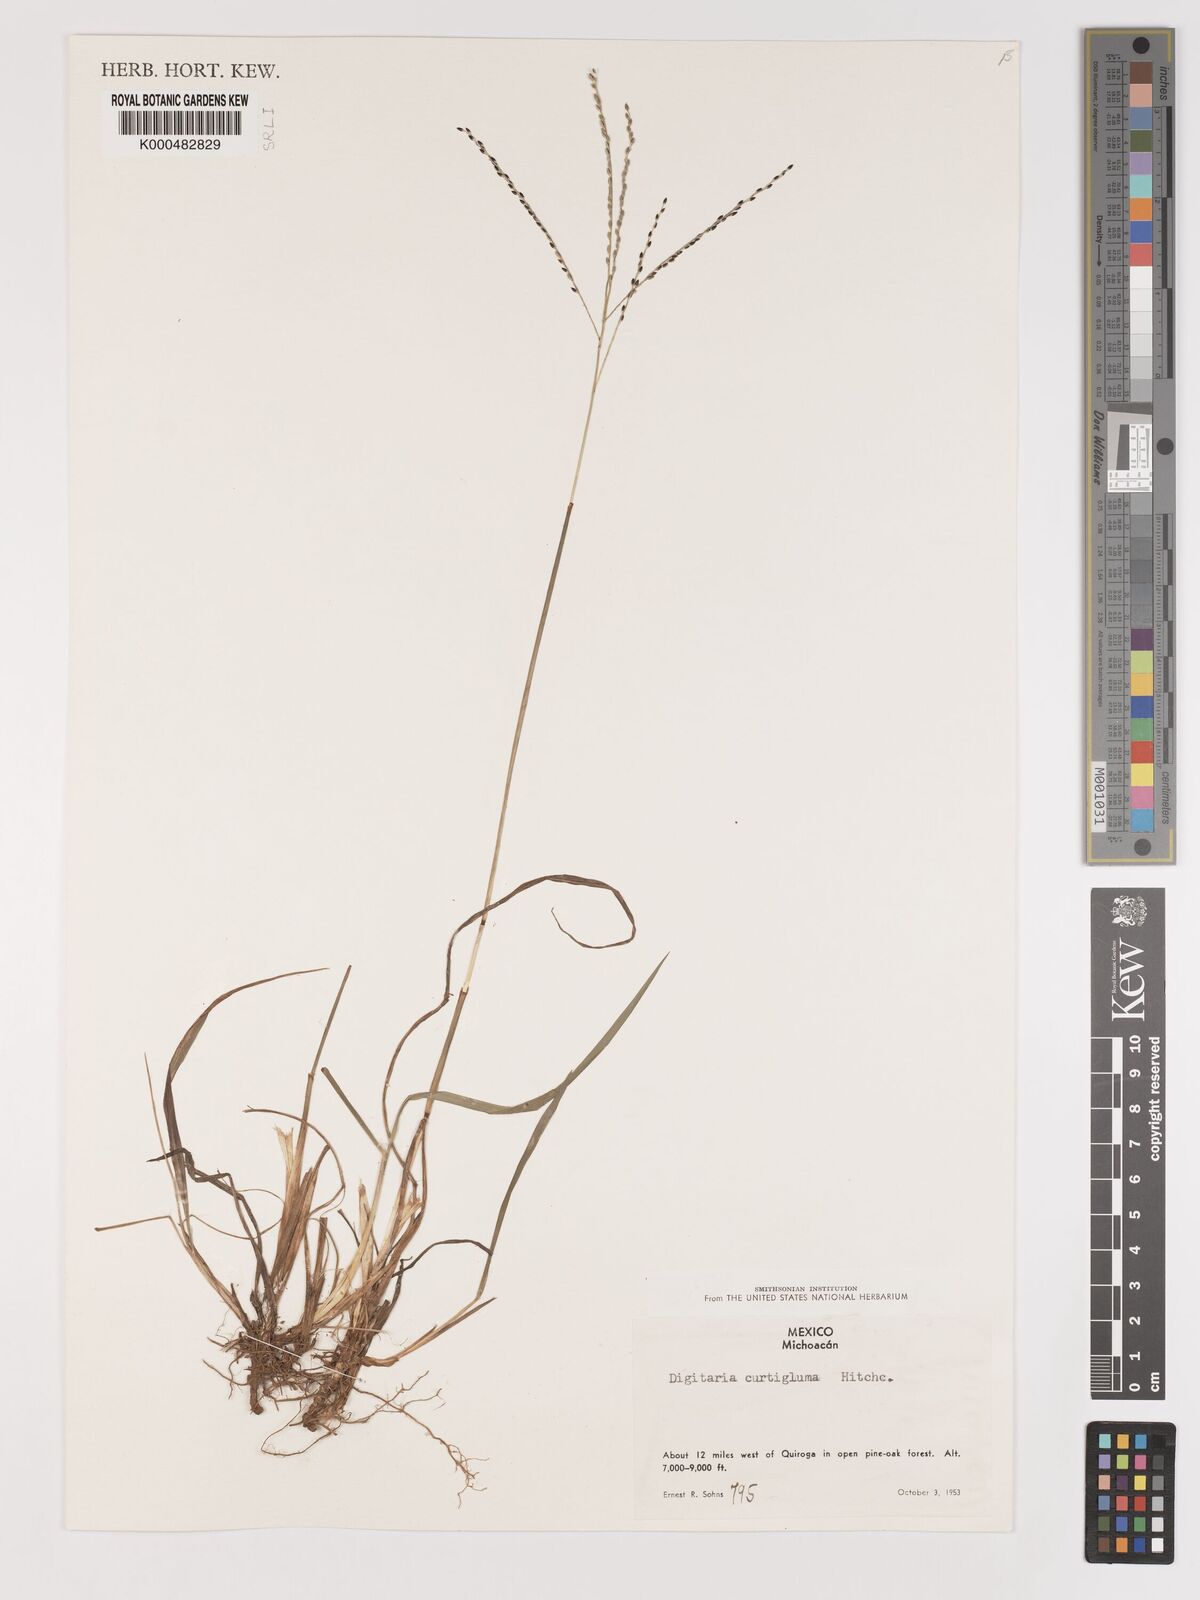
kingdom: Plantae
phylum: Tracheophyta
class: Liliopsida
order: Poales
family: Poaceae
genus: Digitaria
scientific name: Digitaria curtigluma
